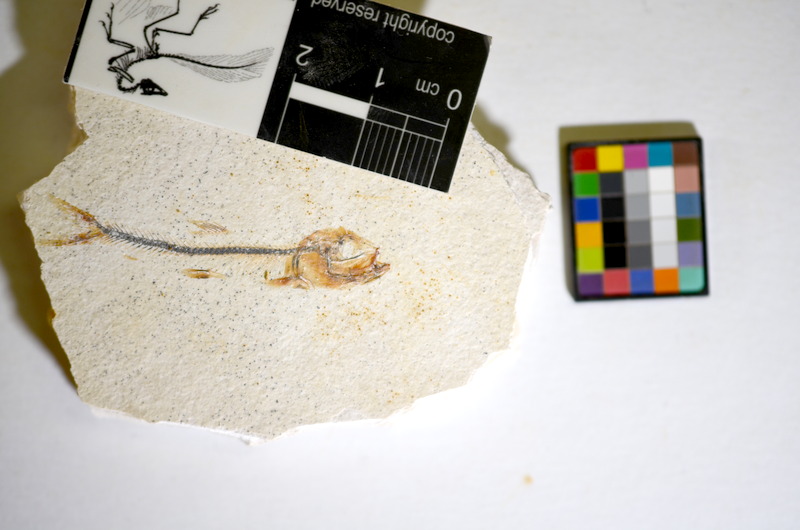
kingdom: Animalia
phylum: Chordata
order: Salmoniformes
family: Orthogonikleithridae
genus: Orthogonikleithrus
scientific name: Orthogonikleithrus hoelli
